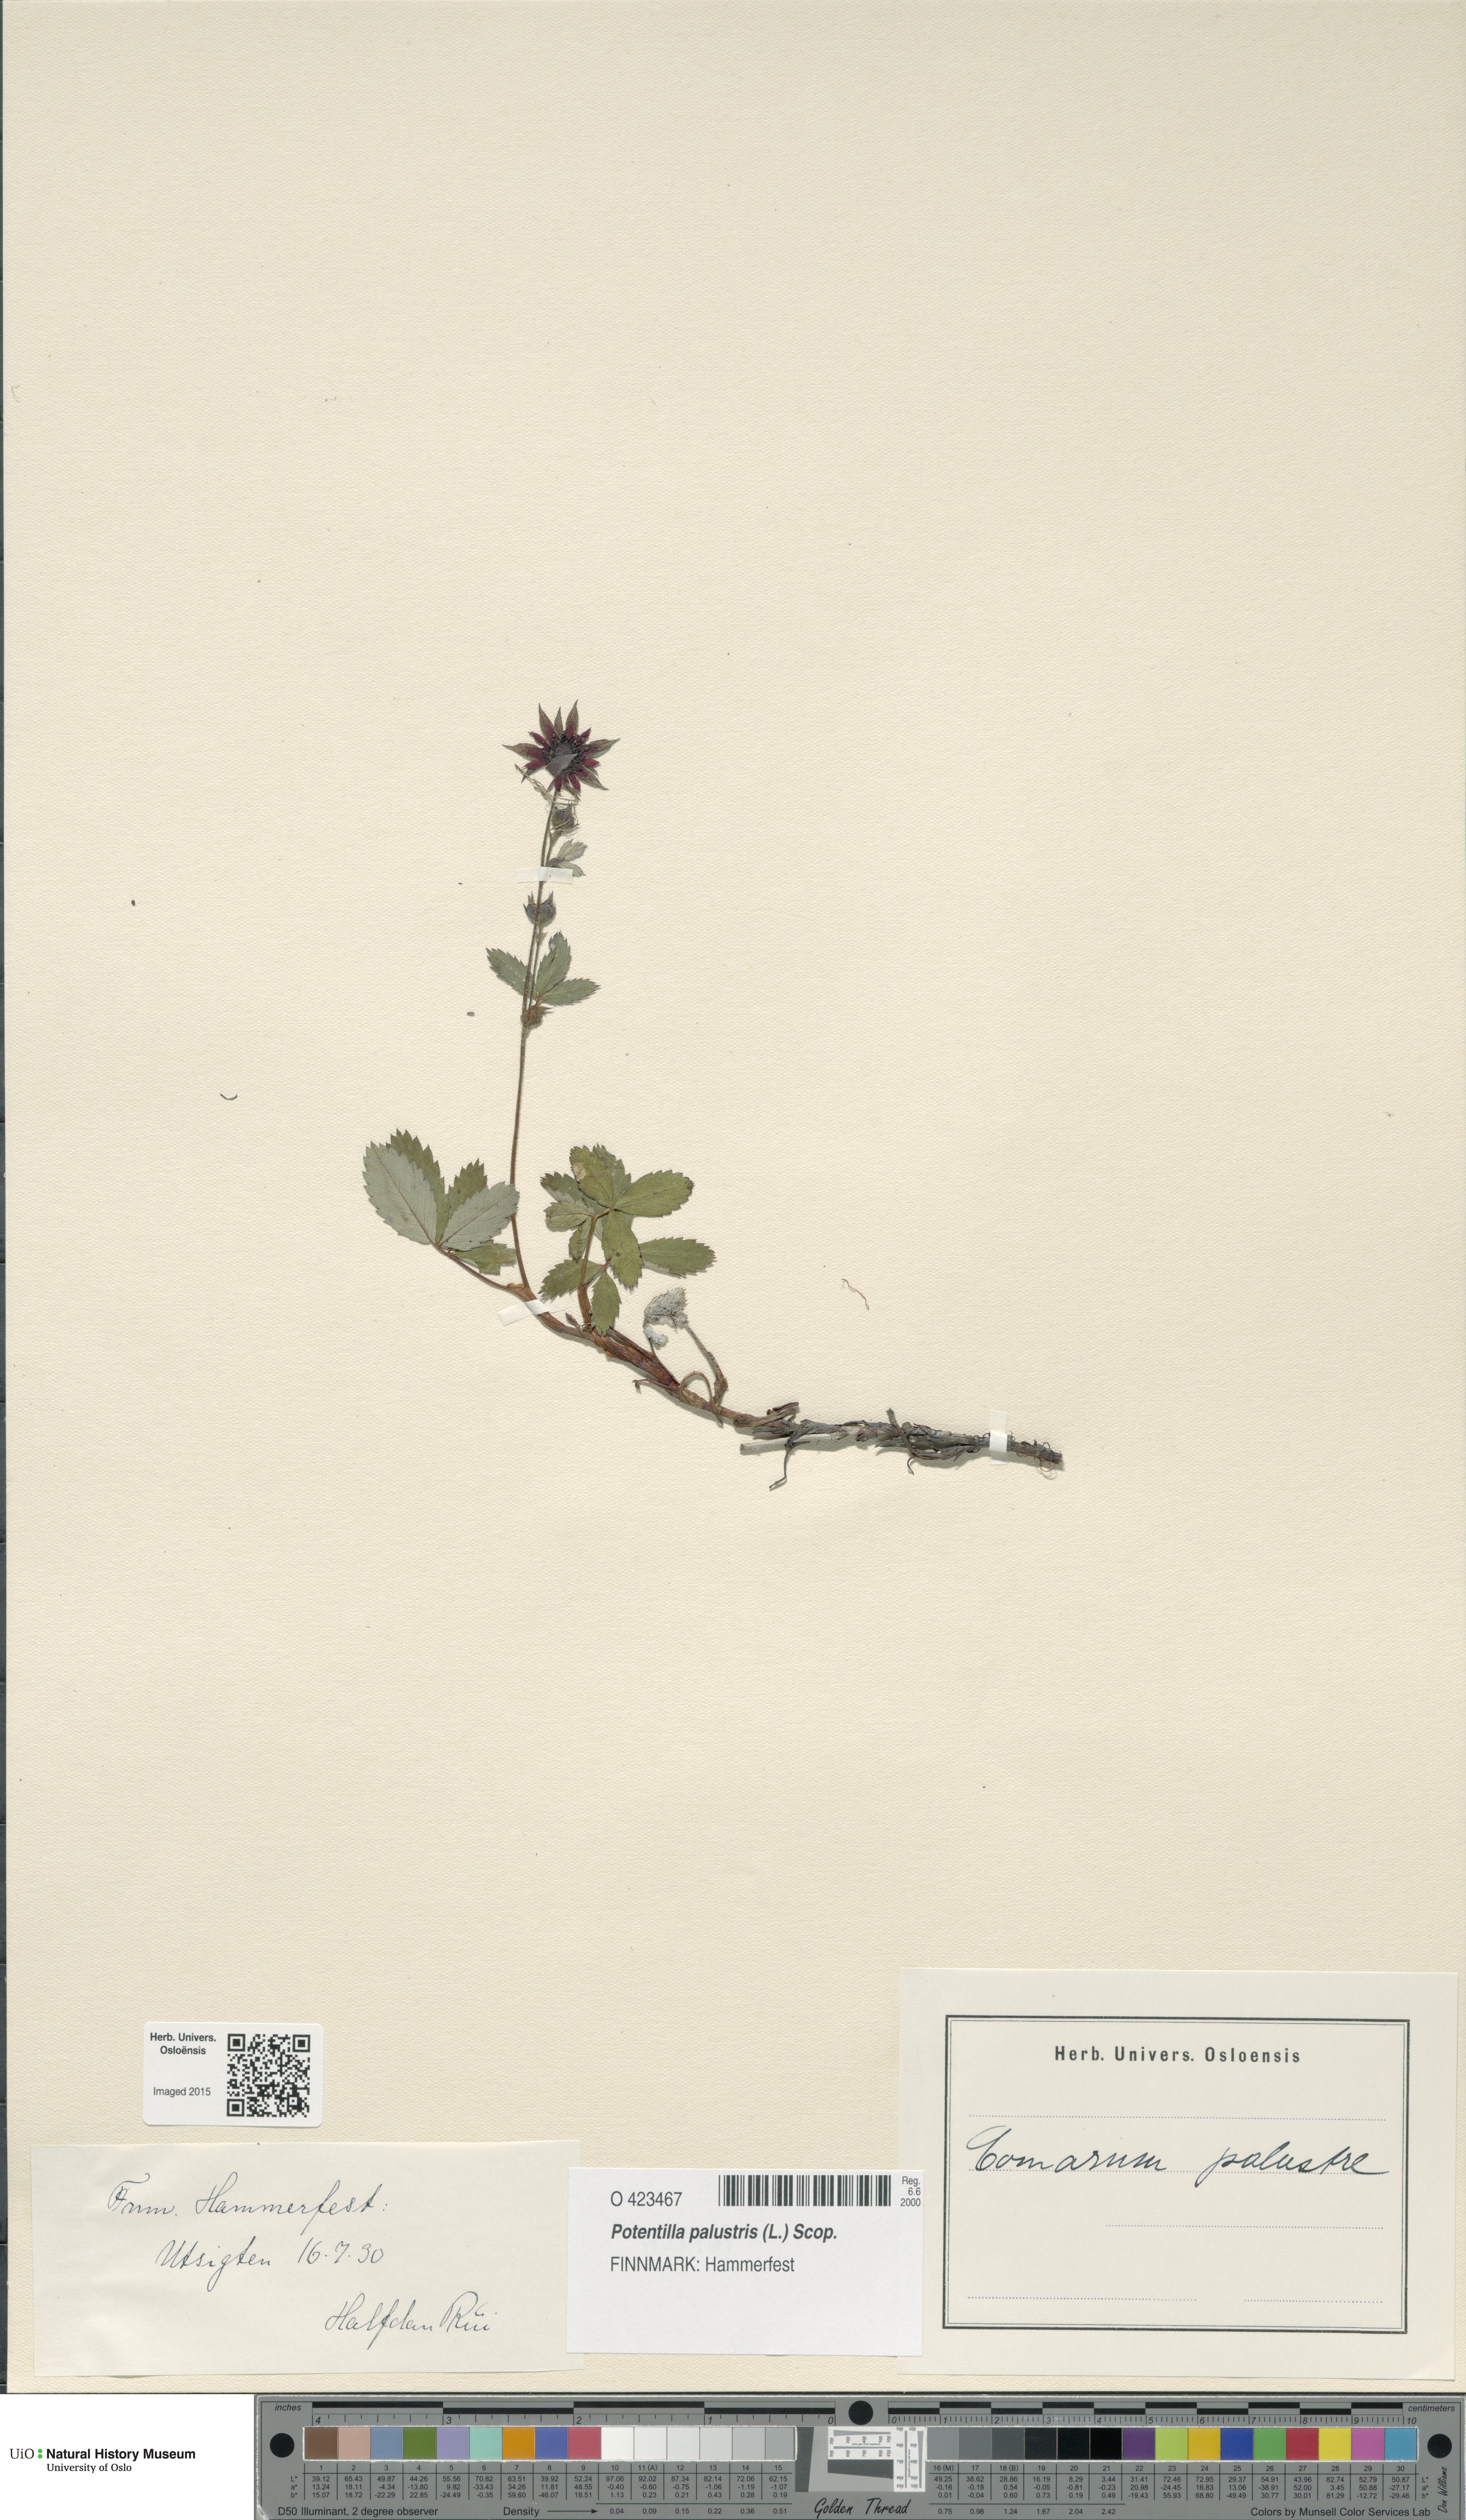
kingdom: Plantae
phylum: Tracheophyta
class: Magnoliopsida
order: Rosales
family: Rosaceae
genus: Comarum
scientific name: Comarum palustre
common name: Marsh cinquefoil
